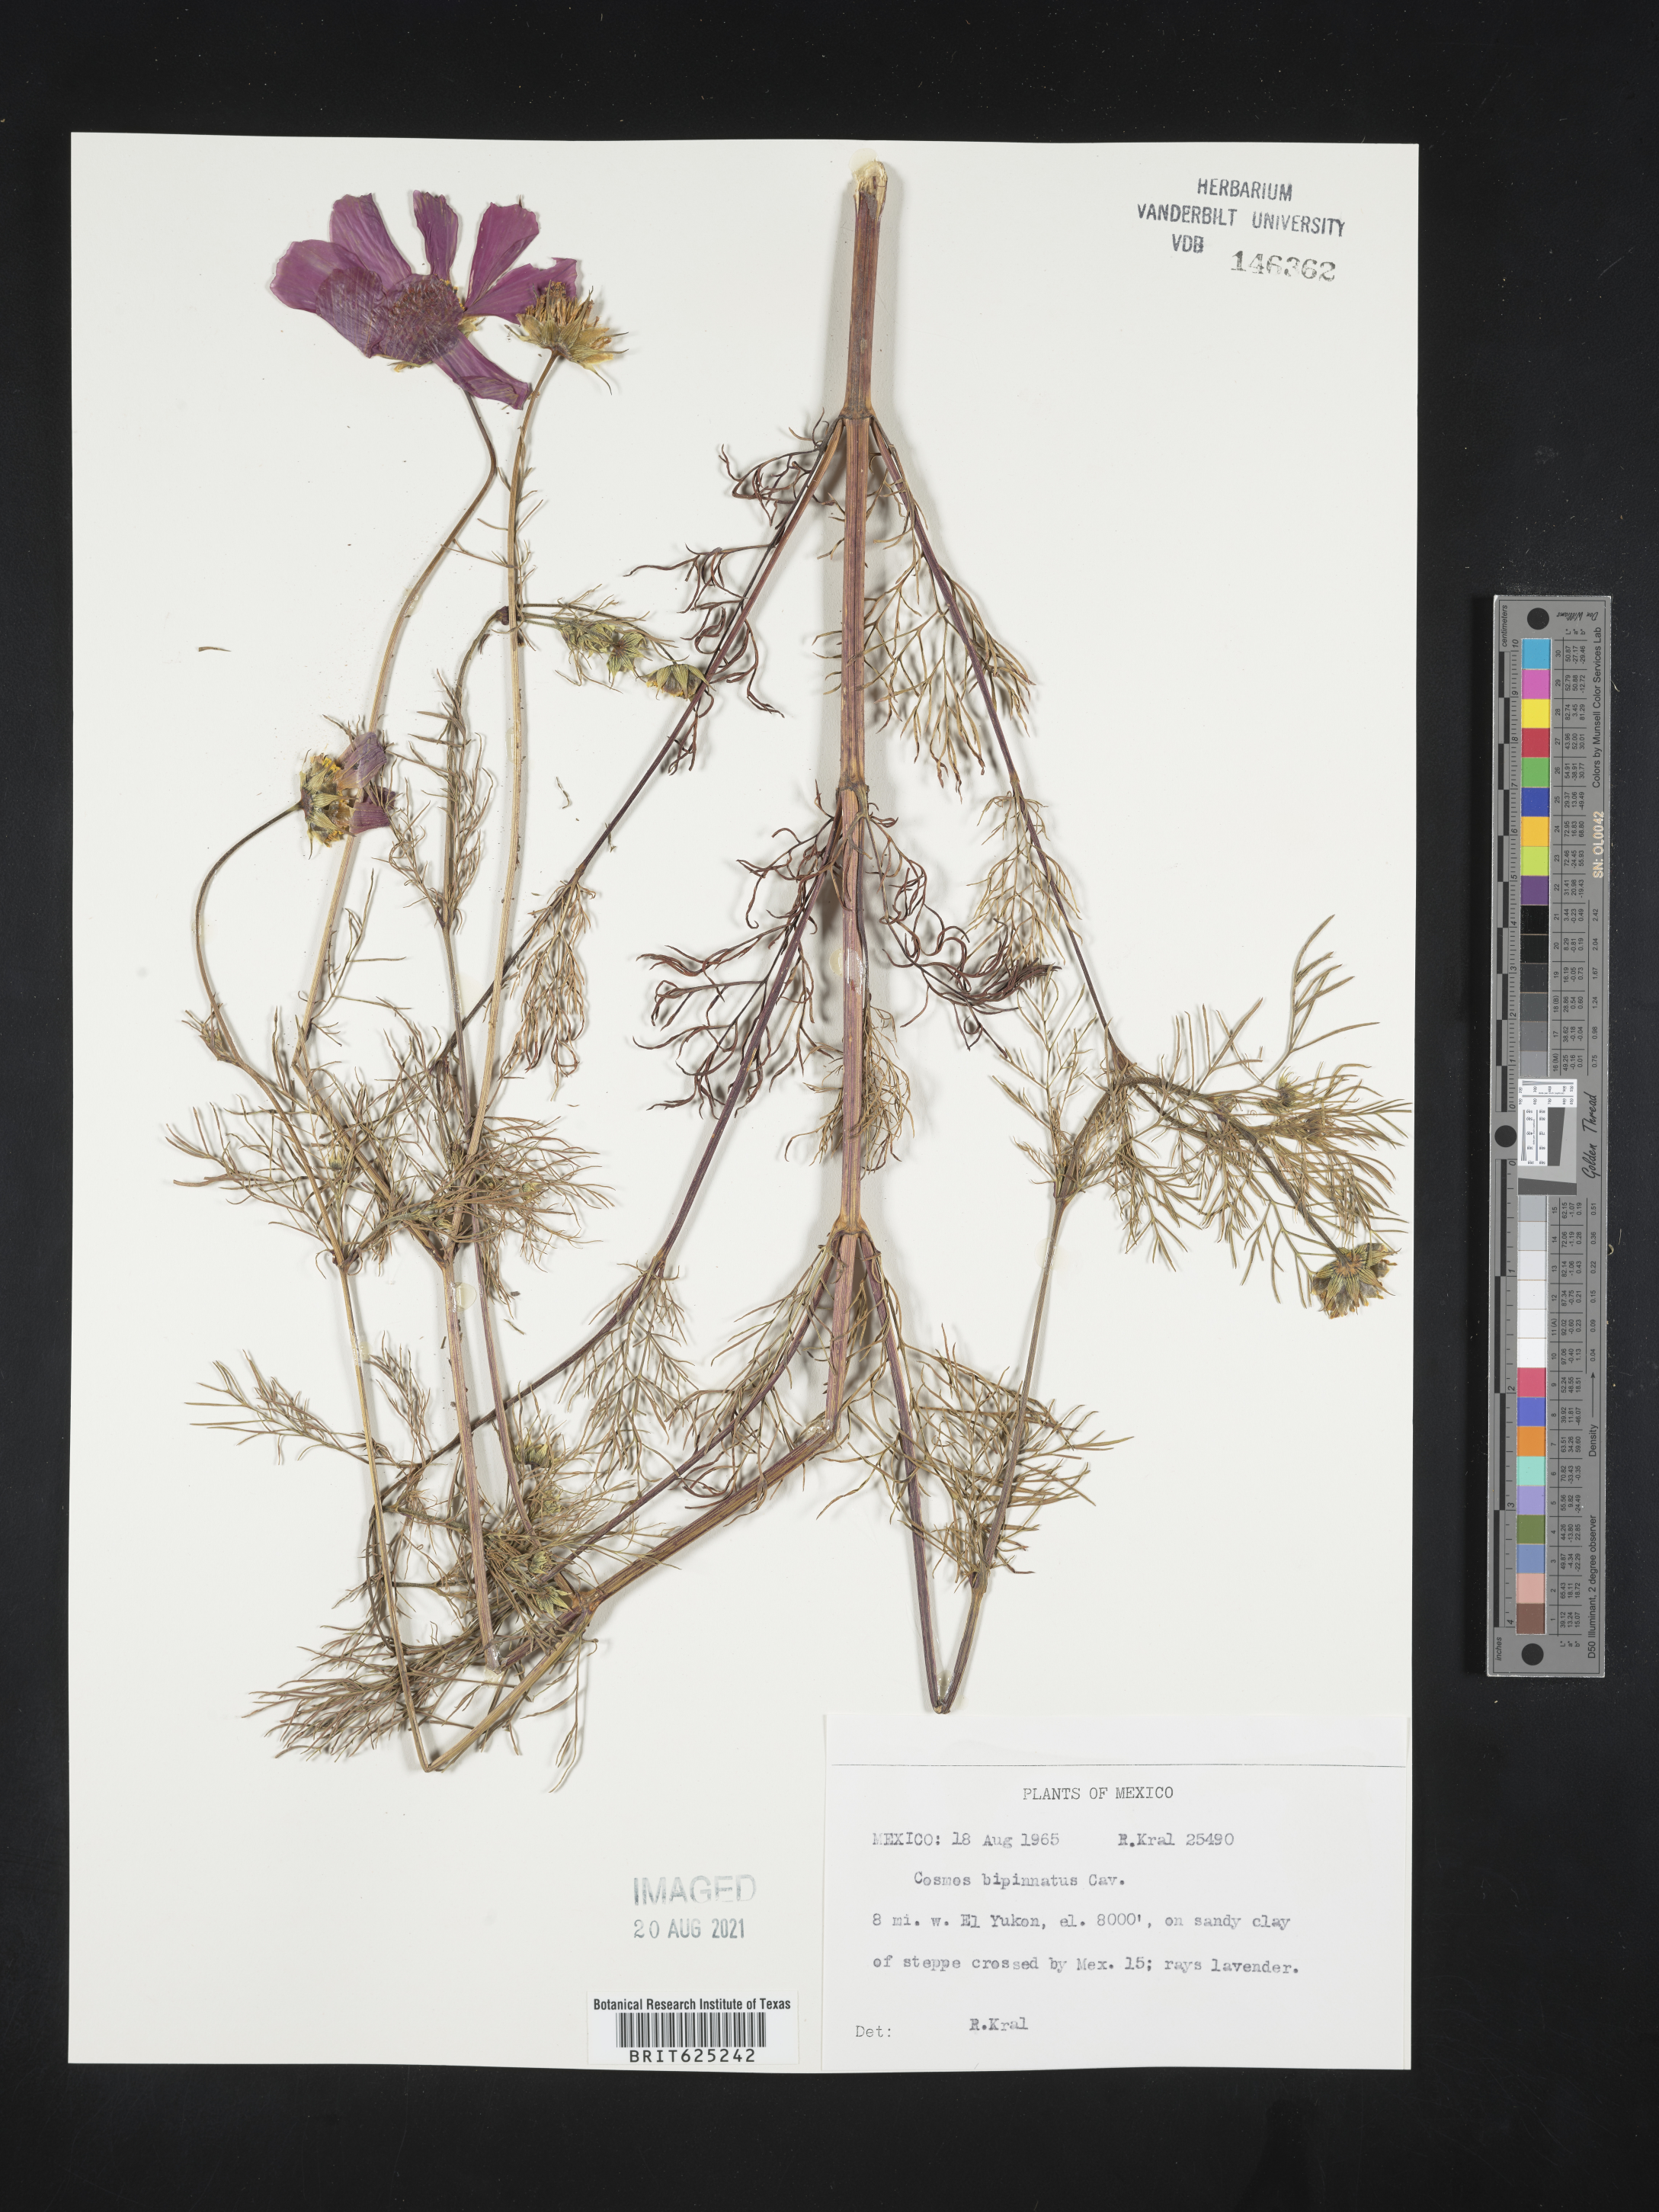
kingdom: Plantae
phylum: Tracheophyta
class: Magnoliopsida
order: Asterales
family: Asteraceae
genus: Cosmos
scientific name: Cosmos
